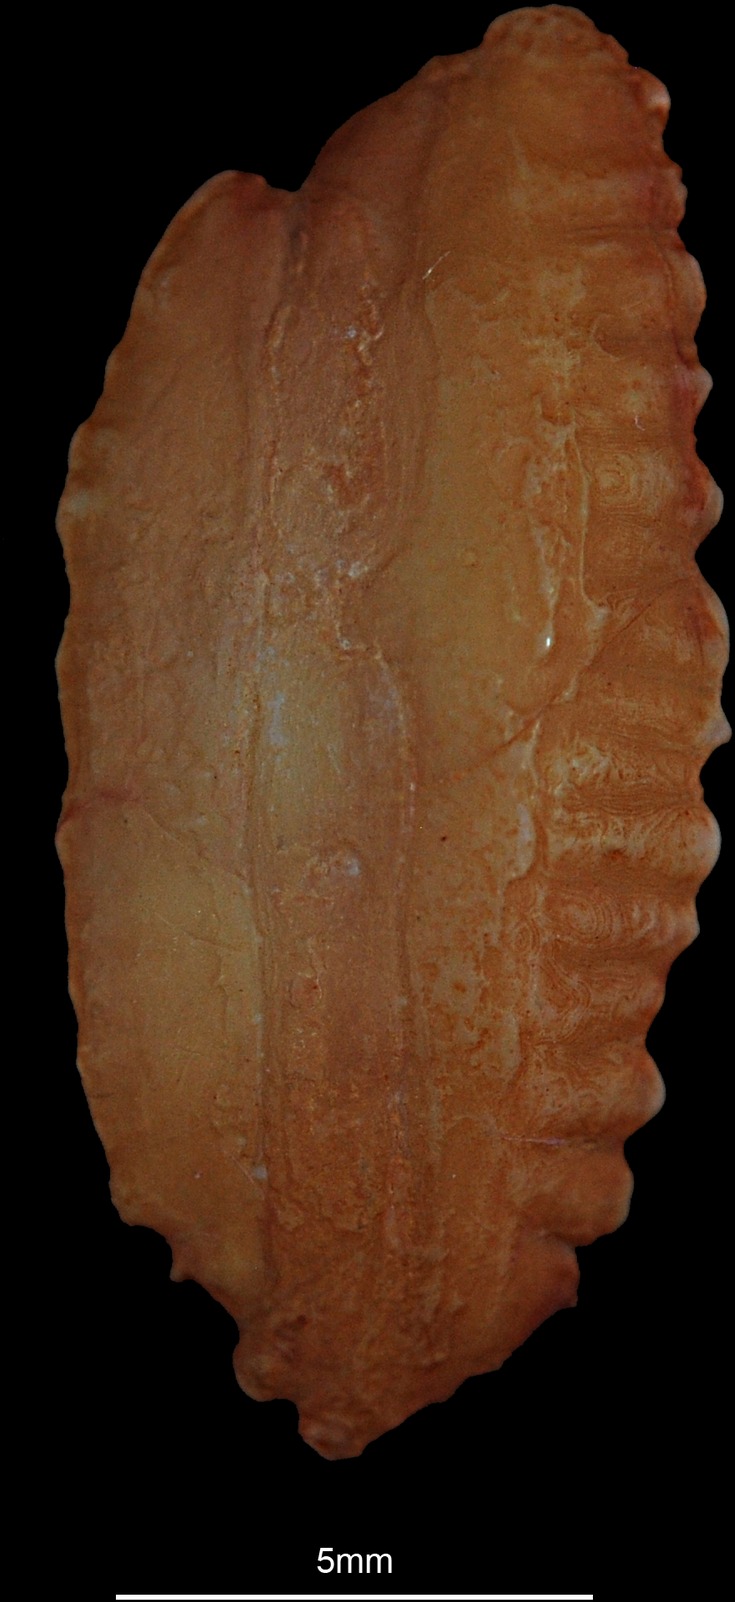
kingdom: Animalia
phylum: Chordata
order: Gadiformes
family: Gadidae
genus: Gadus
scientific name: Gadus morhua
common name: Atlantic cod
